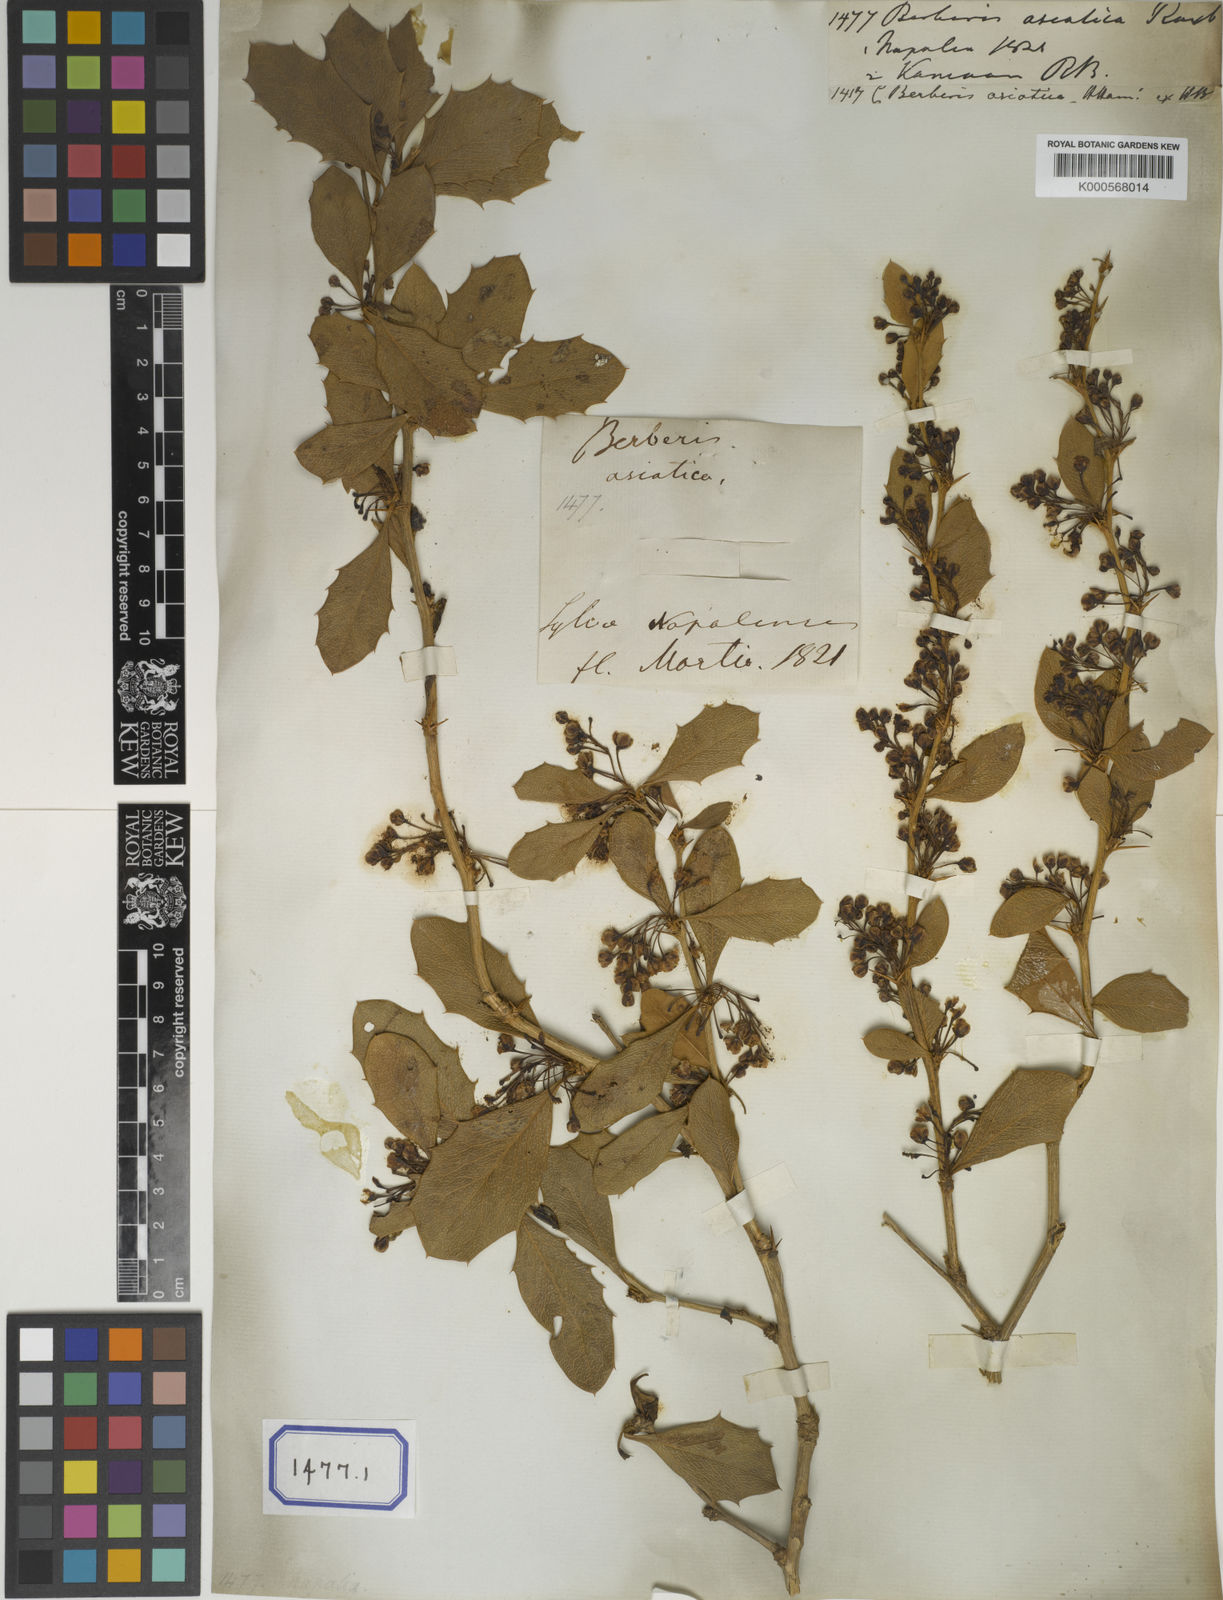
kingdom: Plantae
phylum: Tracheophyta
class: Magnoliopsida
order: Ranunculales
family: Berberidaceae
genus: Berberis
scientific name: Berberis asiatica
